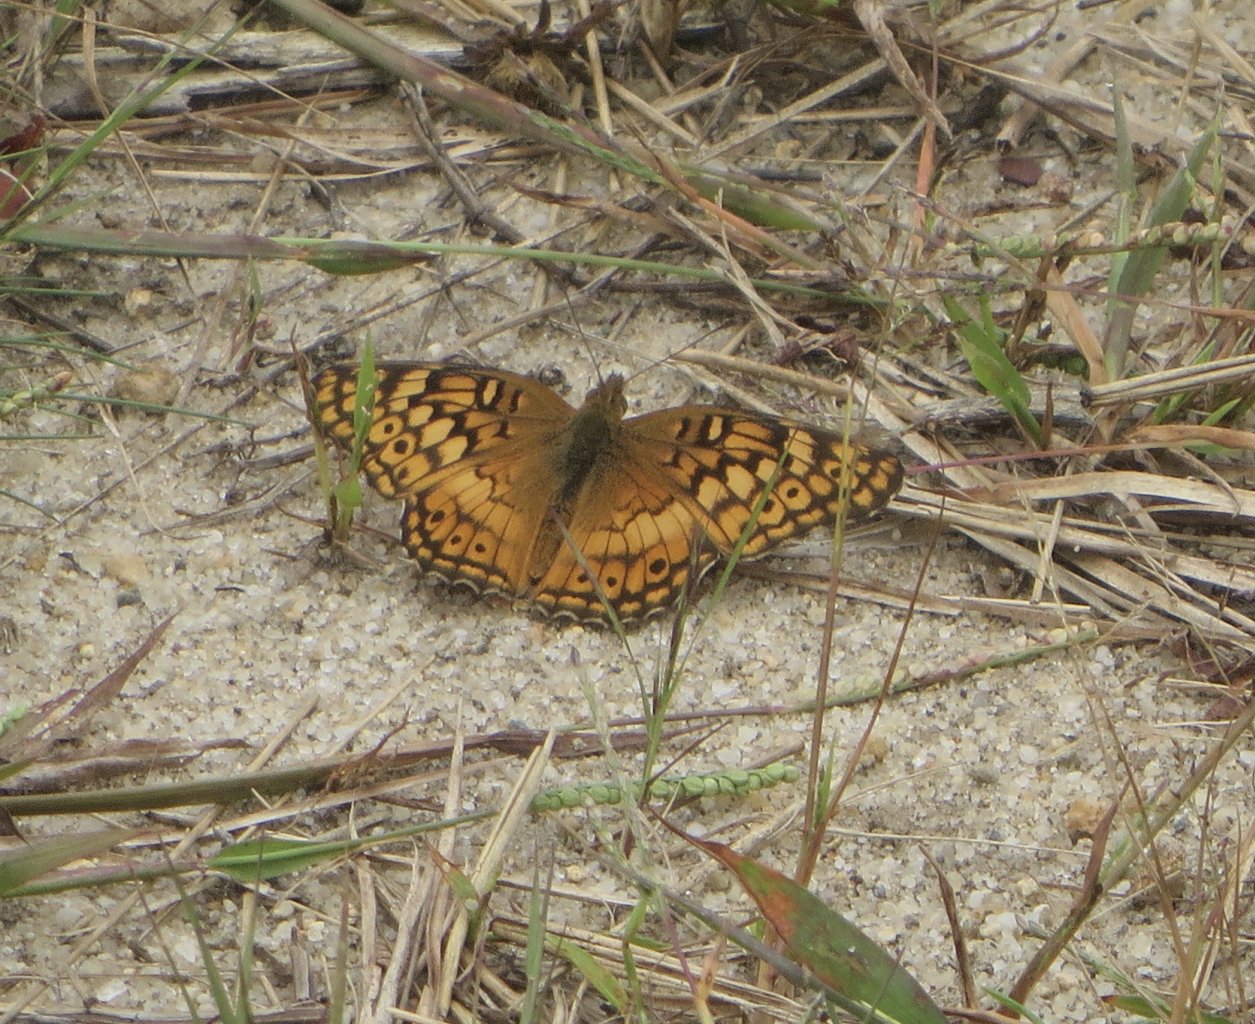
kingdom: Animalia
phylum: Arthropoda
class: Insecta
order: Lepidoptera
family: Nymphalidae
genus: Euptoieta
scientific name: Euptoieta claudia
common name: Variegated Fritillary
